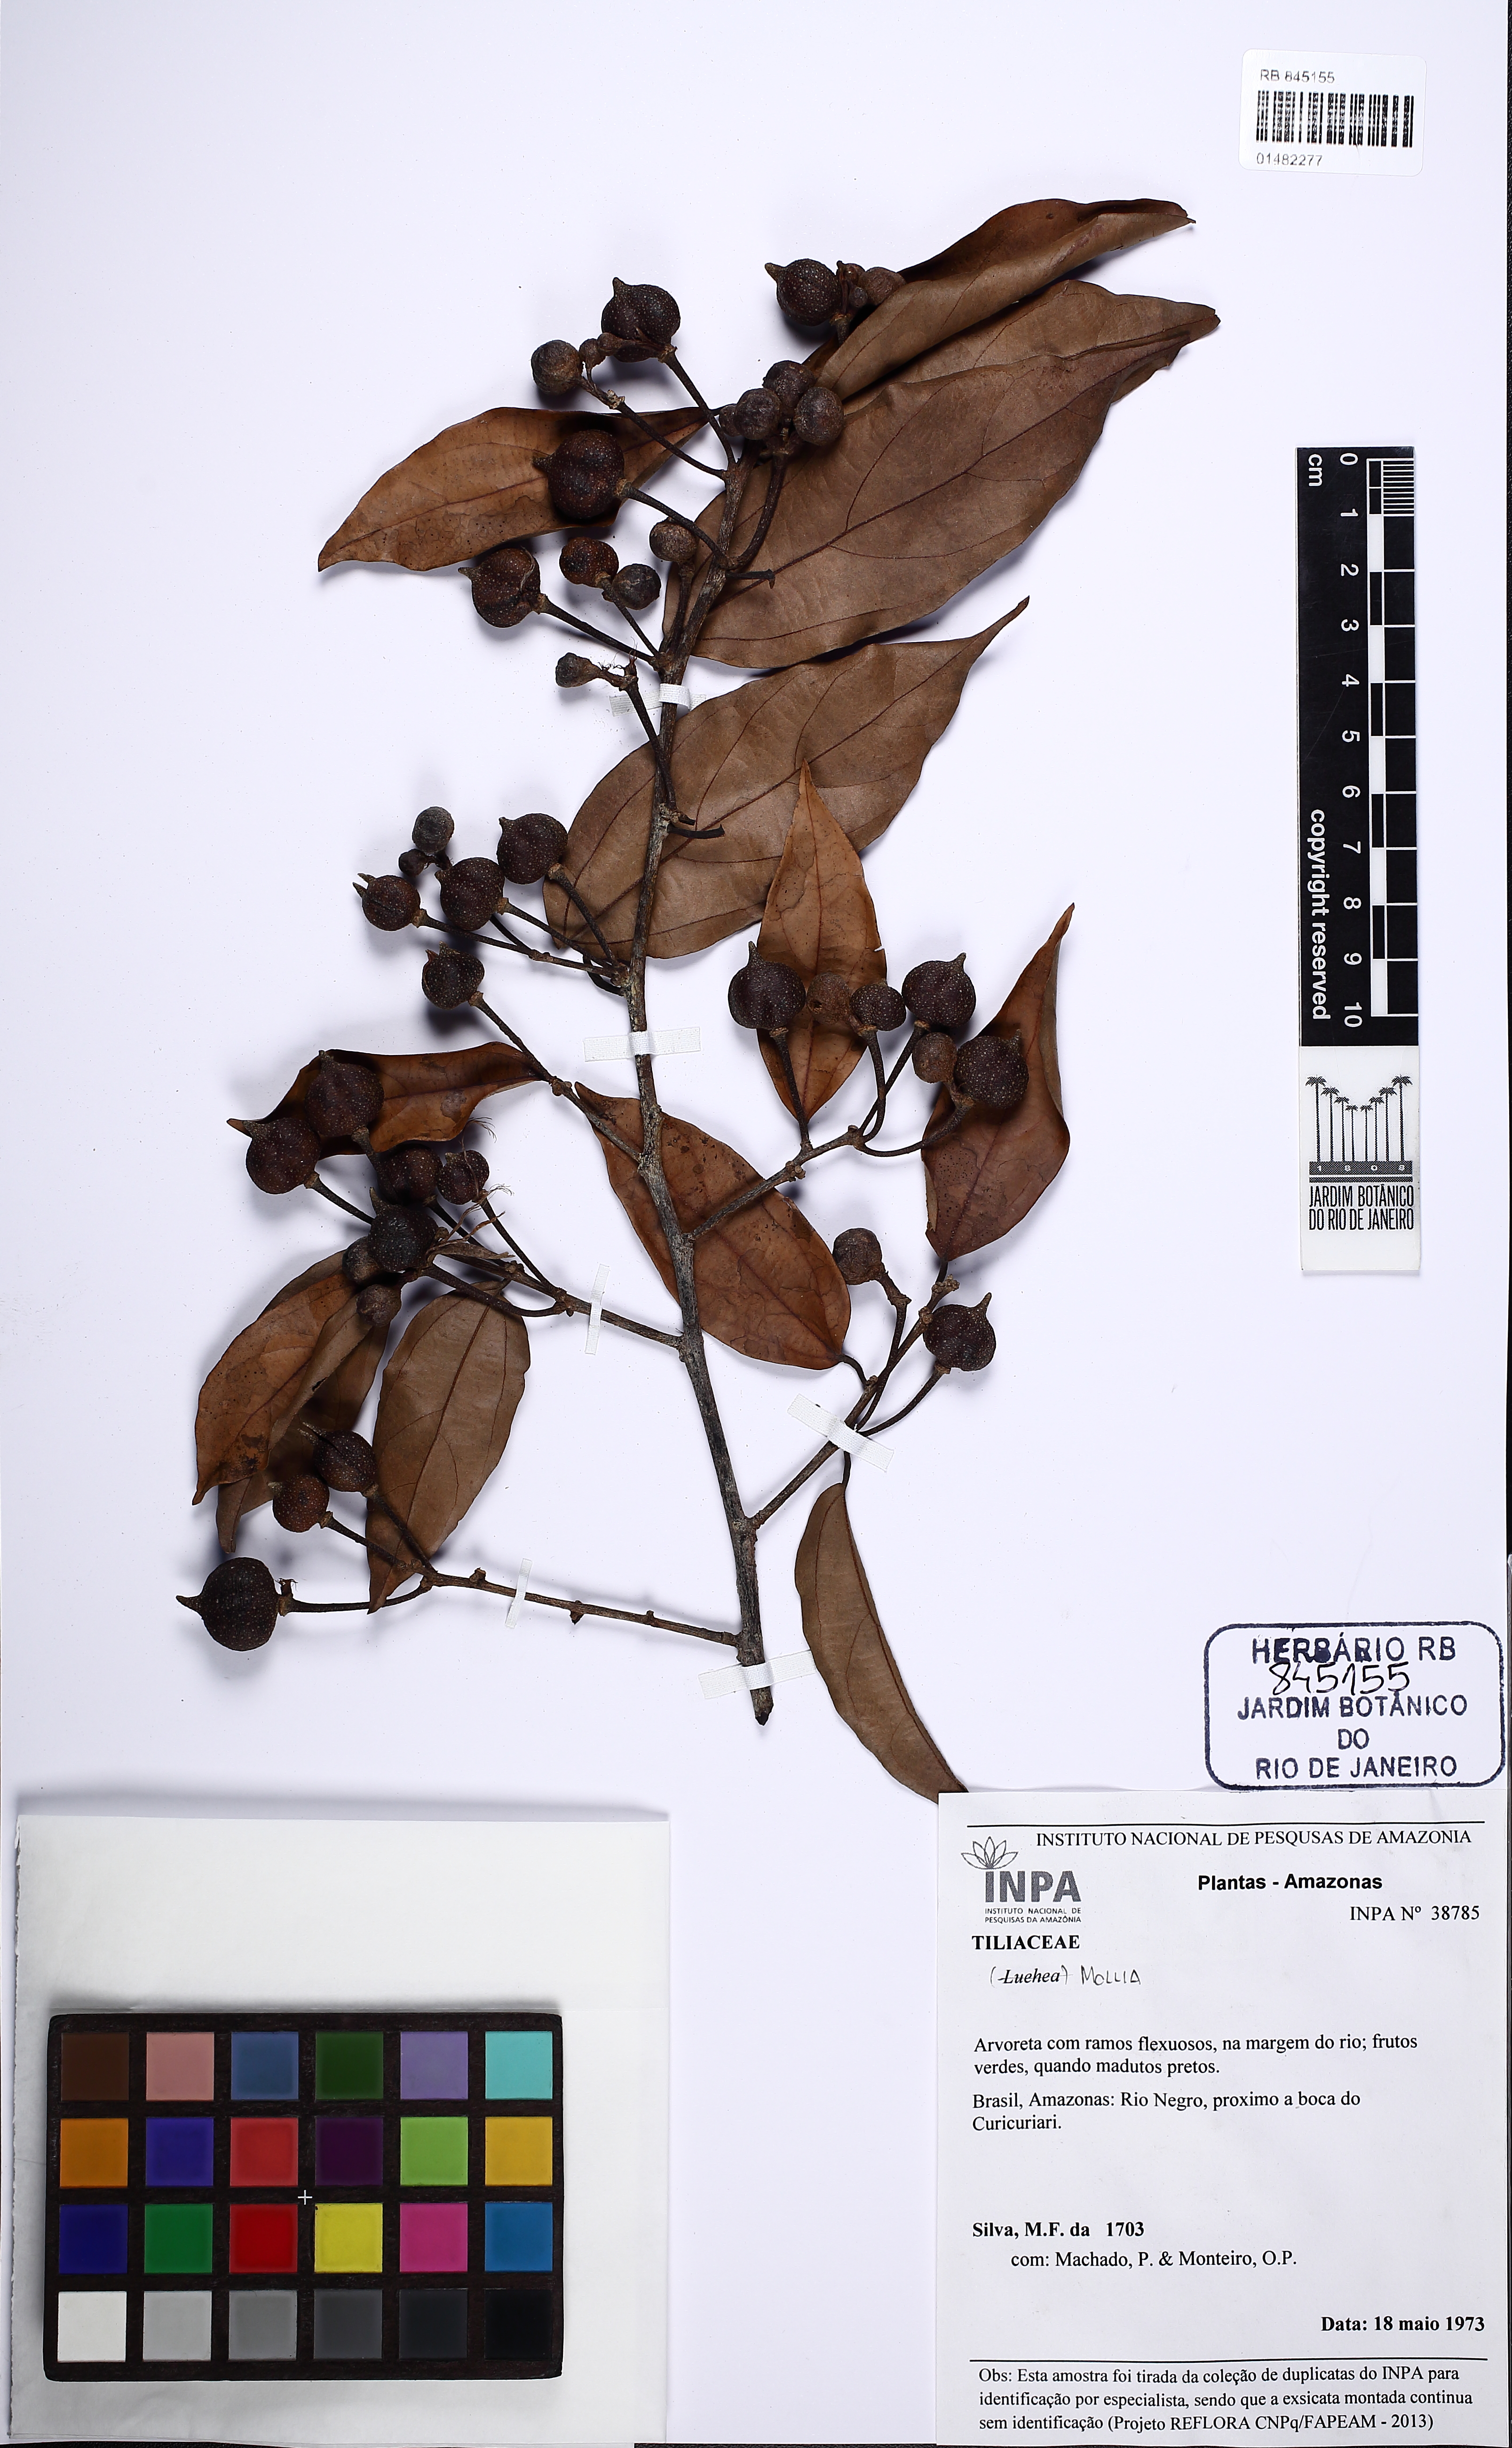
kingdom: Plantae
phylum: Tracheophyta
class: Magnoliopsida
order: Malvales
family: Malvaceae
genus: Mollia
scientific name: Mollia lucens
